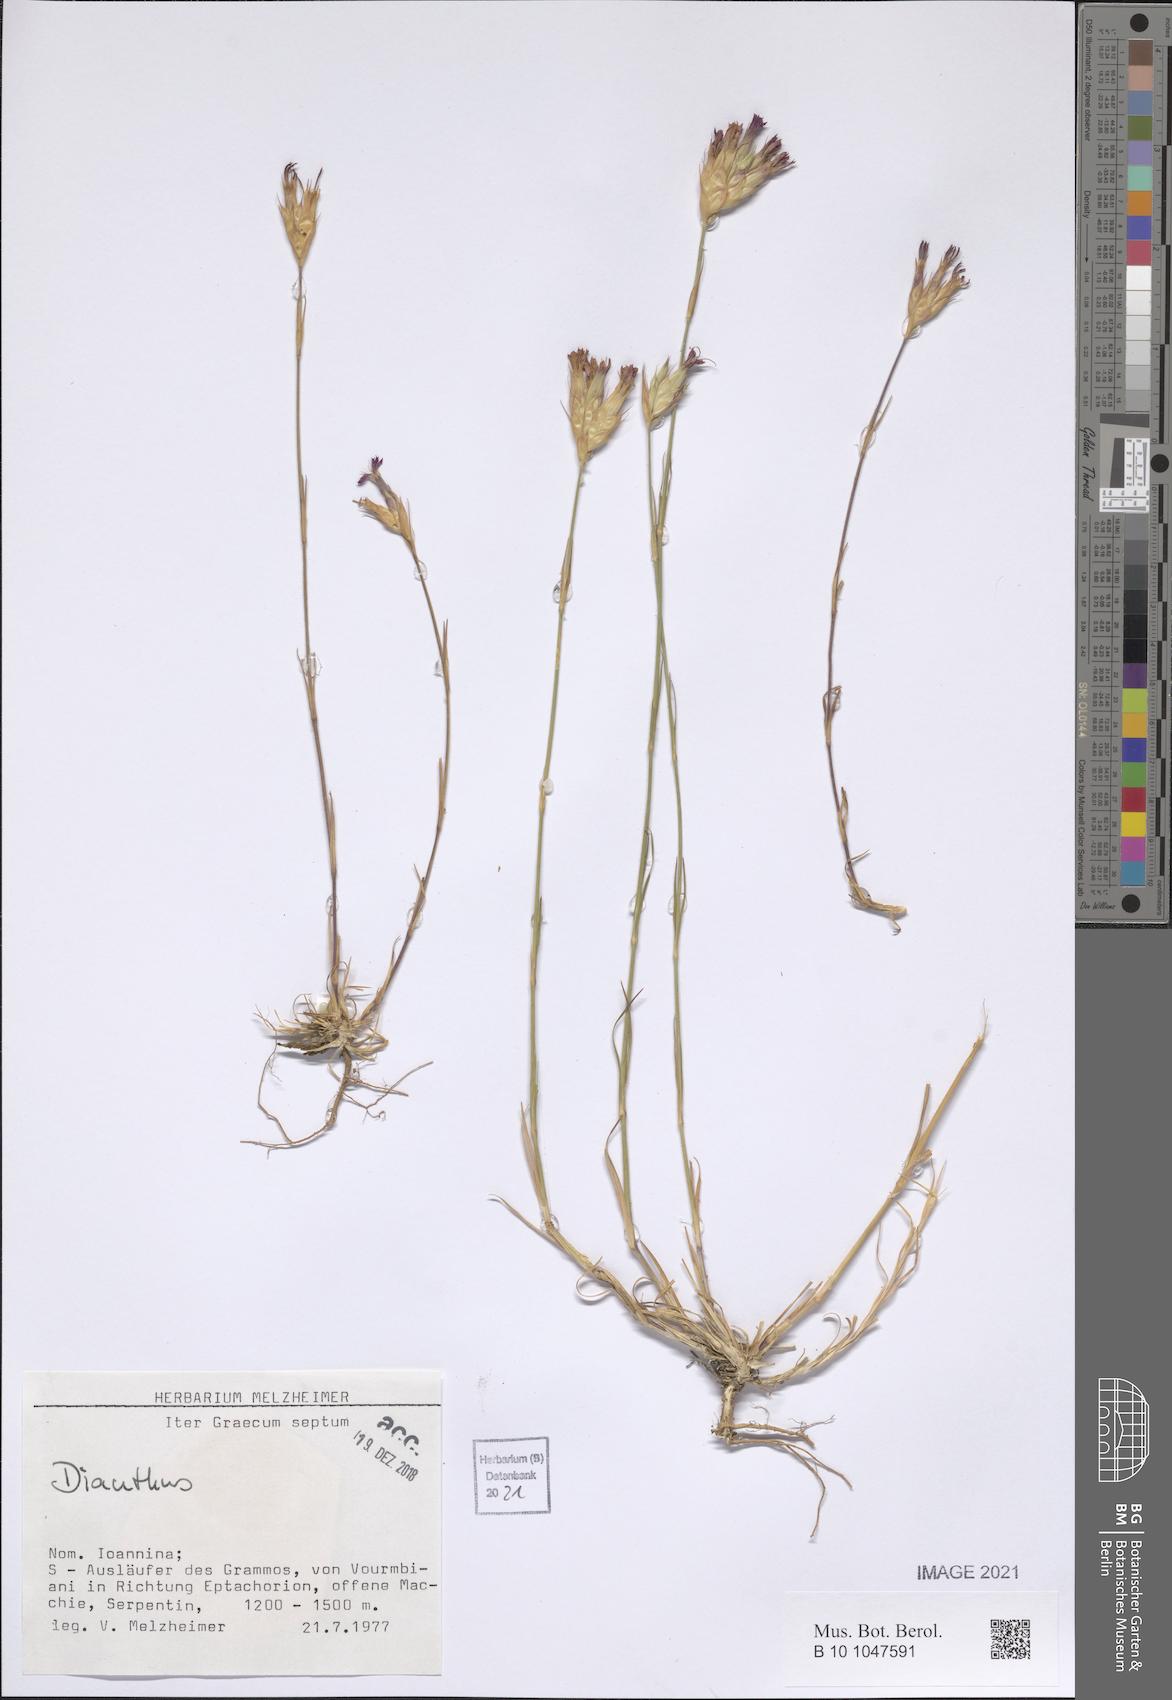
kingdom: Plantae
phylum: Tracheophyta
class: Magnoliopsida
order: Caryophyllales
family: Caryophyllaceae
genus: Dianthus
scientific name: Dianthus
